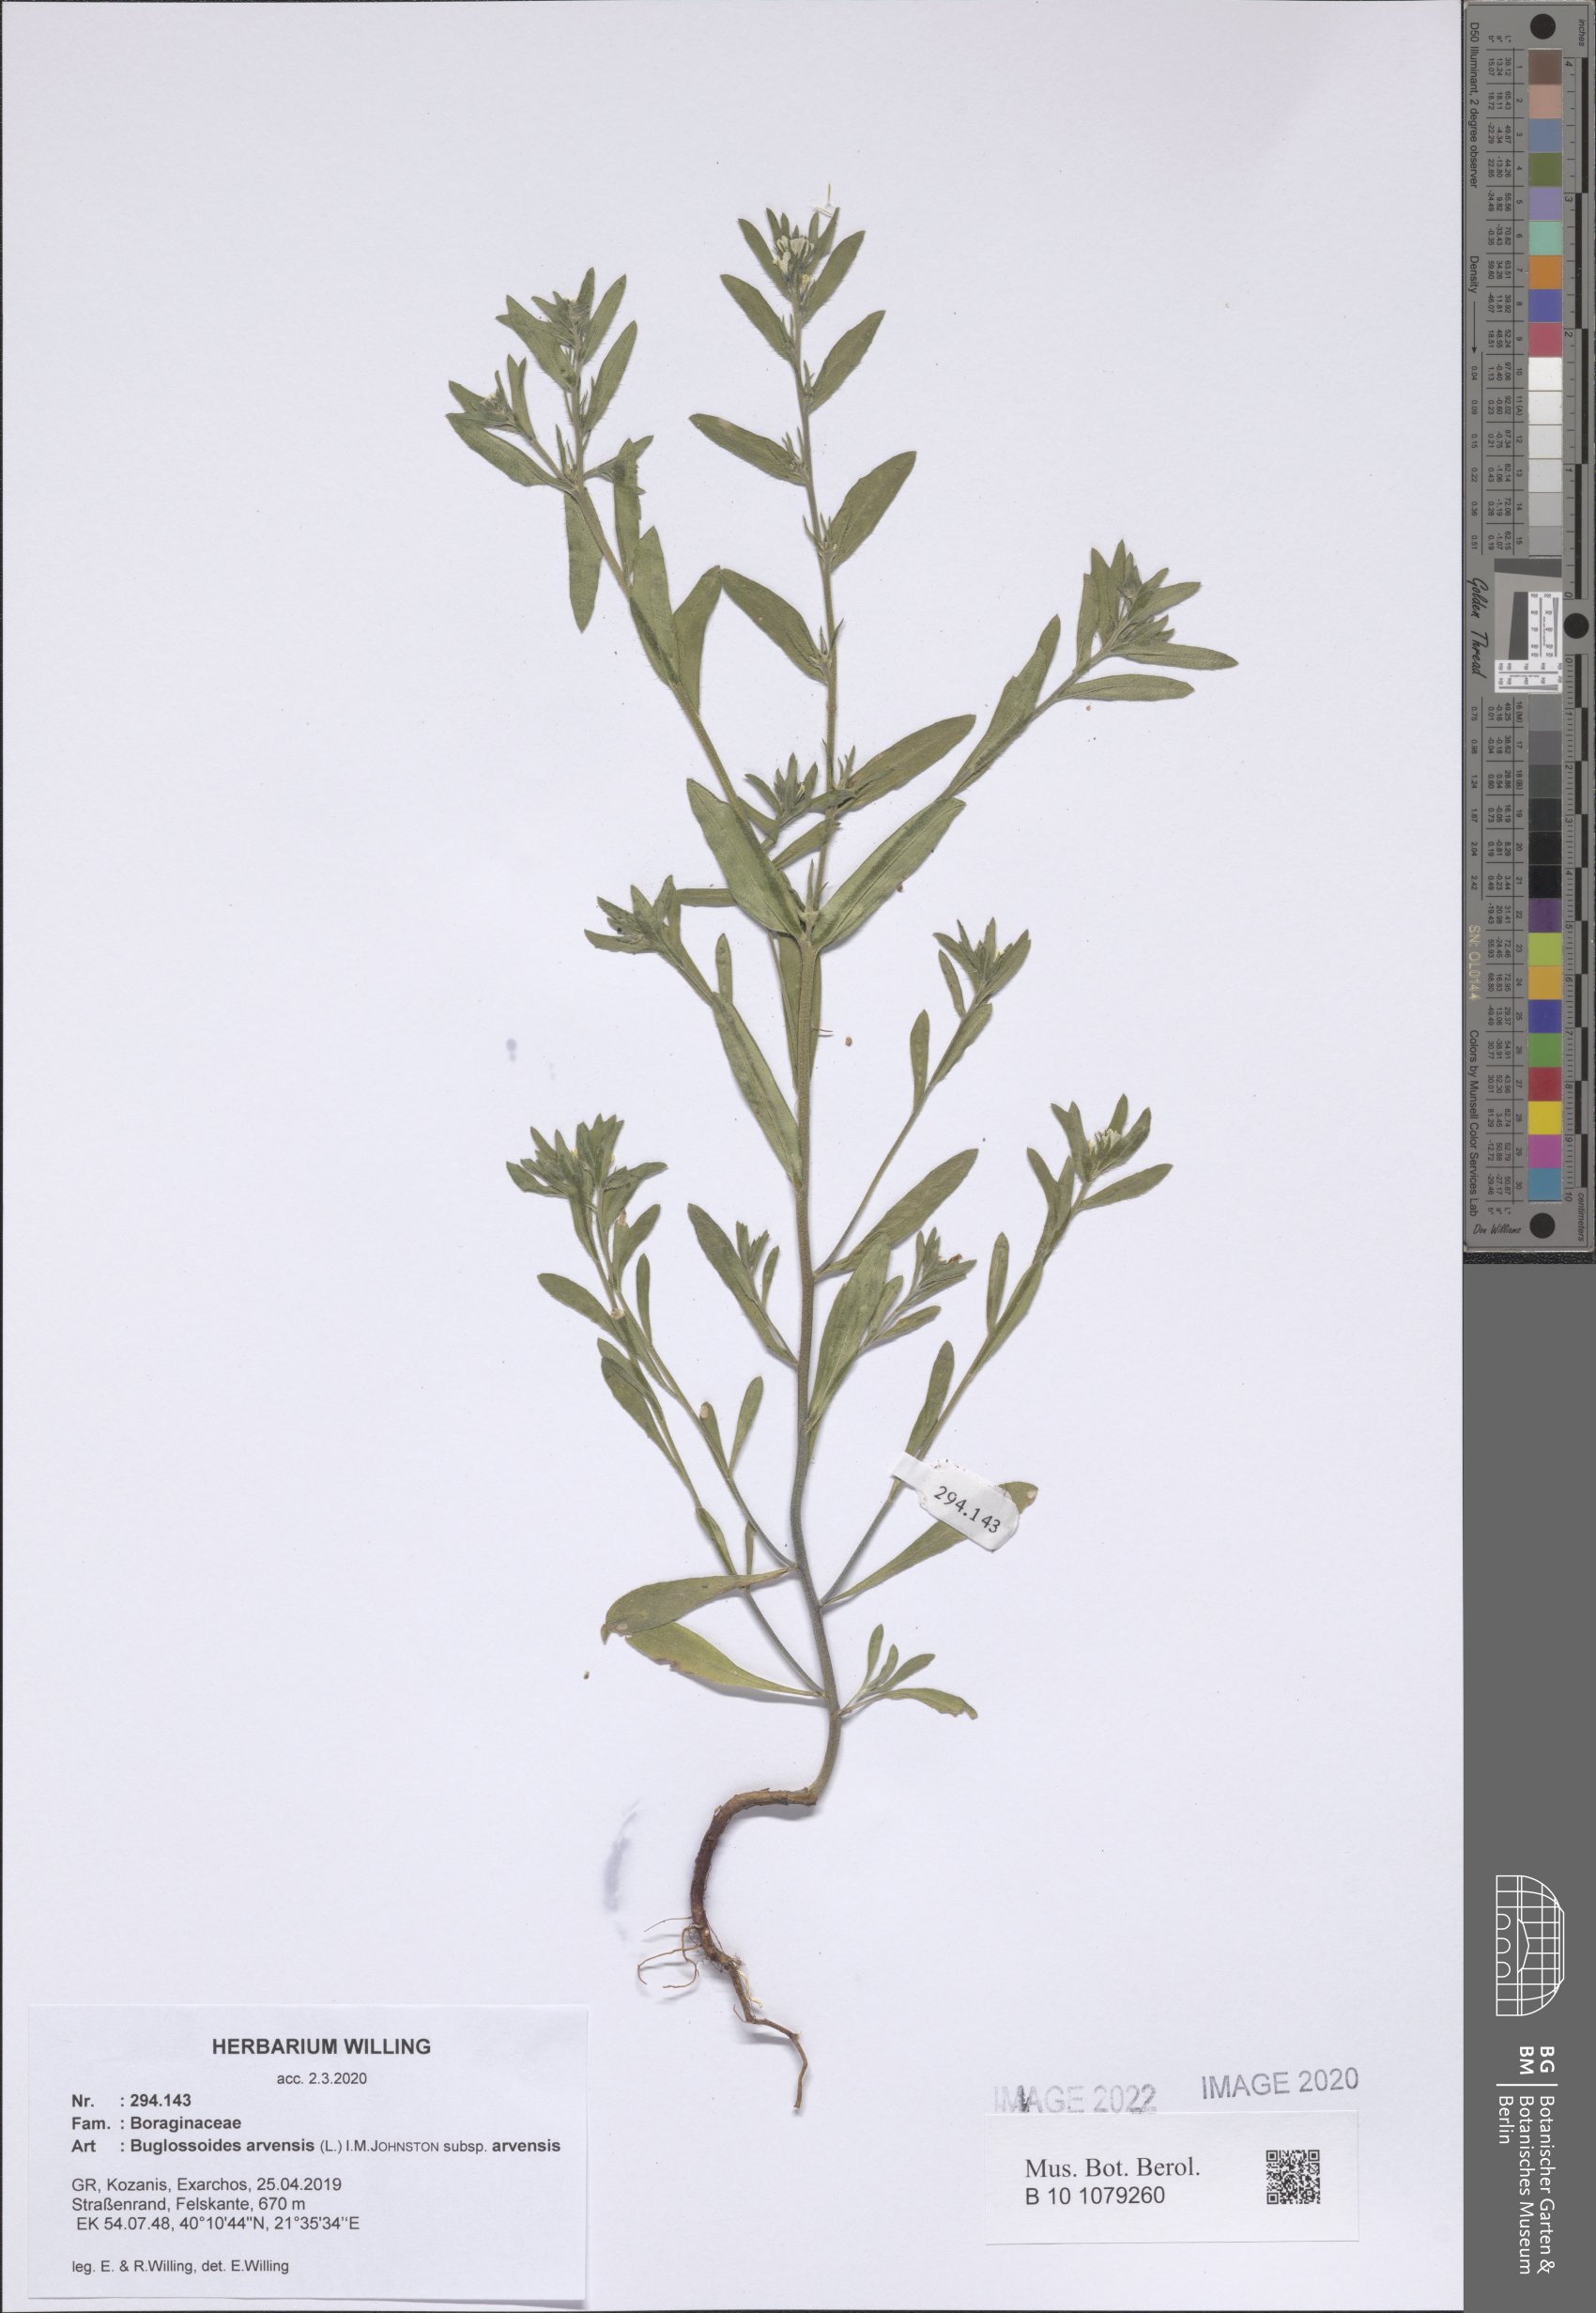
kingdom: Plantae
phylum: Tracheophyta
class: Magnoliopsida
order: Boraginales
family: Boraginaceae
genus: Buglossoides
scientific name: Buglossoides arvensis
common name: Corn gromwell
